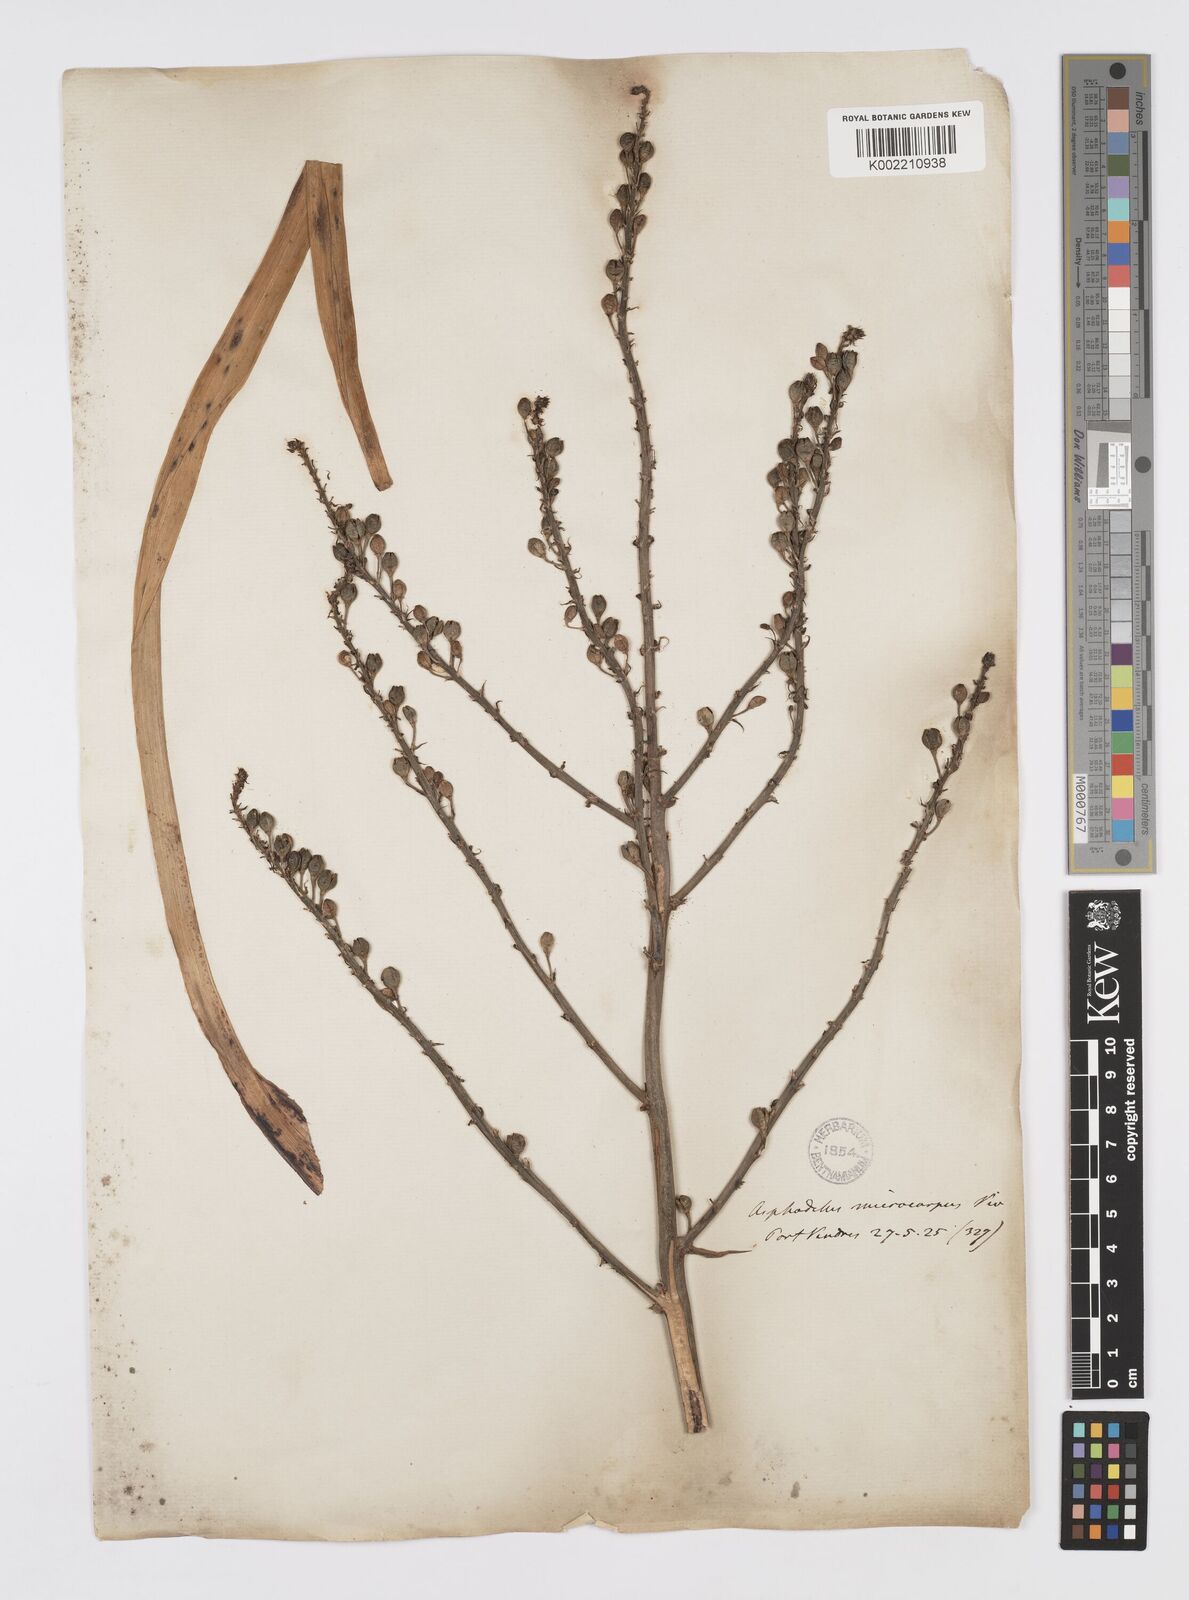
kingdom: Plantae
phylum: Tracheophyta
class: Liliopsida
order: Asparagales
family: Asphodelaceae
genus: Asphodelus
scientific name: Asphodelus ramosus
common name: Silverrod
